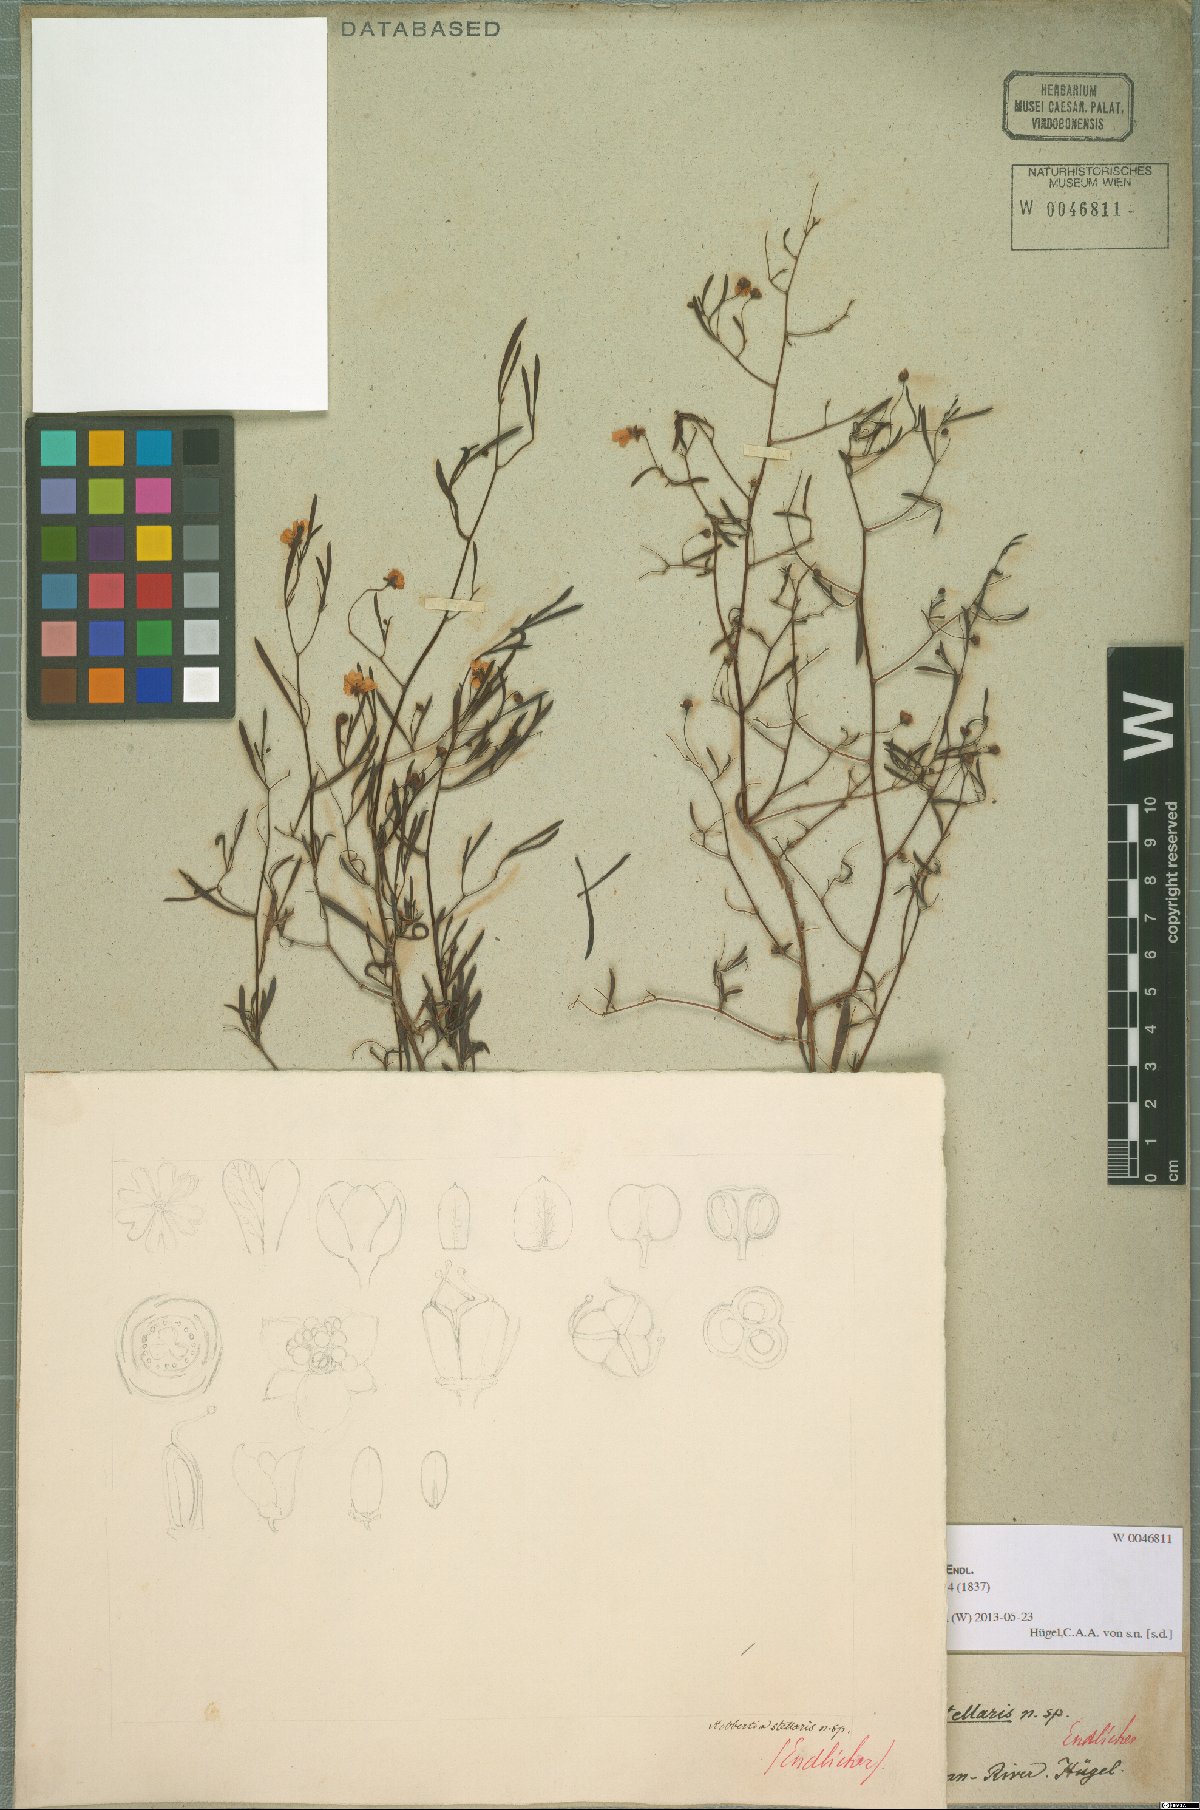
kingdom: Plantae
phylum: Tracheophyta
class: Magnoliopsida
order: Dilleniales
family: Dilleniaceae
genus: Hibbertia
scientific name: Hibbertia stellaris
